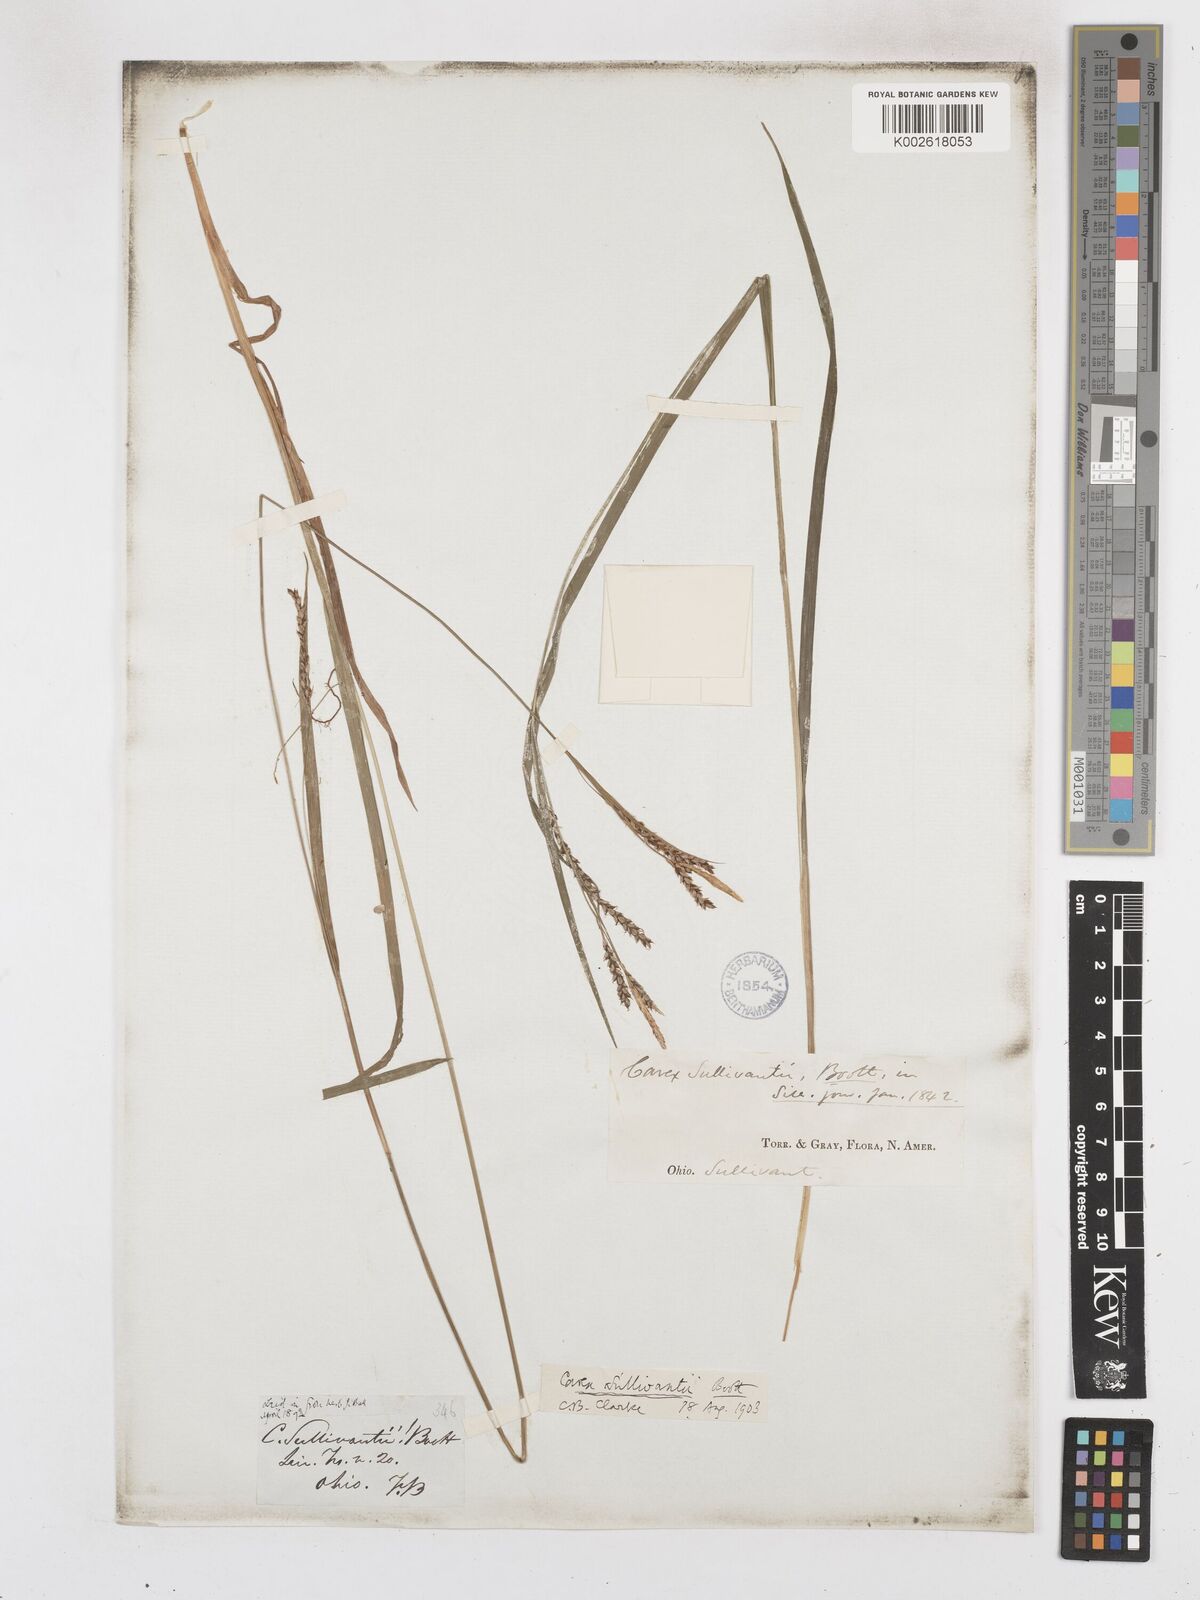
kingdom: Plantae
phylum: Tracheophyta
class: Liliopsida
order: Poales
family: Cyperaceae
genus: Carex
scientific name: Carex sullivantii
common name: Sullivant's sedge
